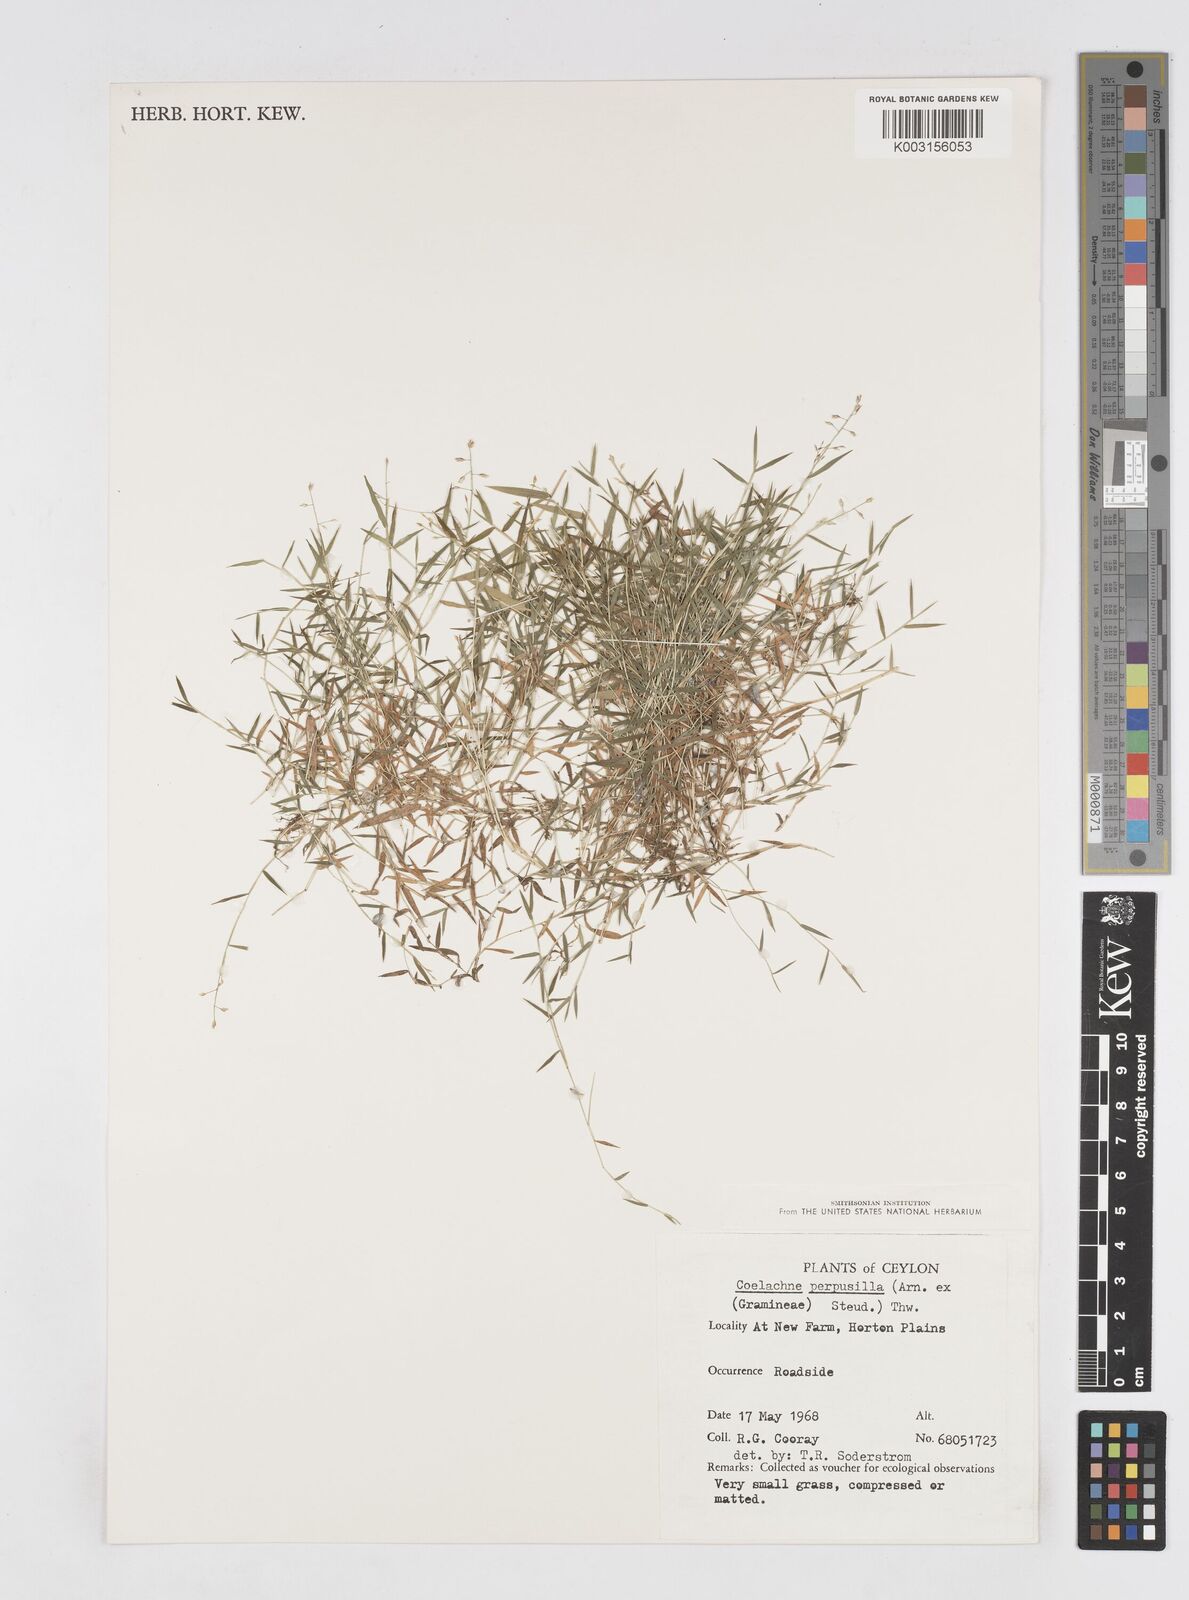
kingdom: Plantae
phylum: Tracheophyta
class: Liliopsida
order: Poales
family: Poaceae
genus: Coelachne
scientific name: Coelachne perpusilla
